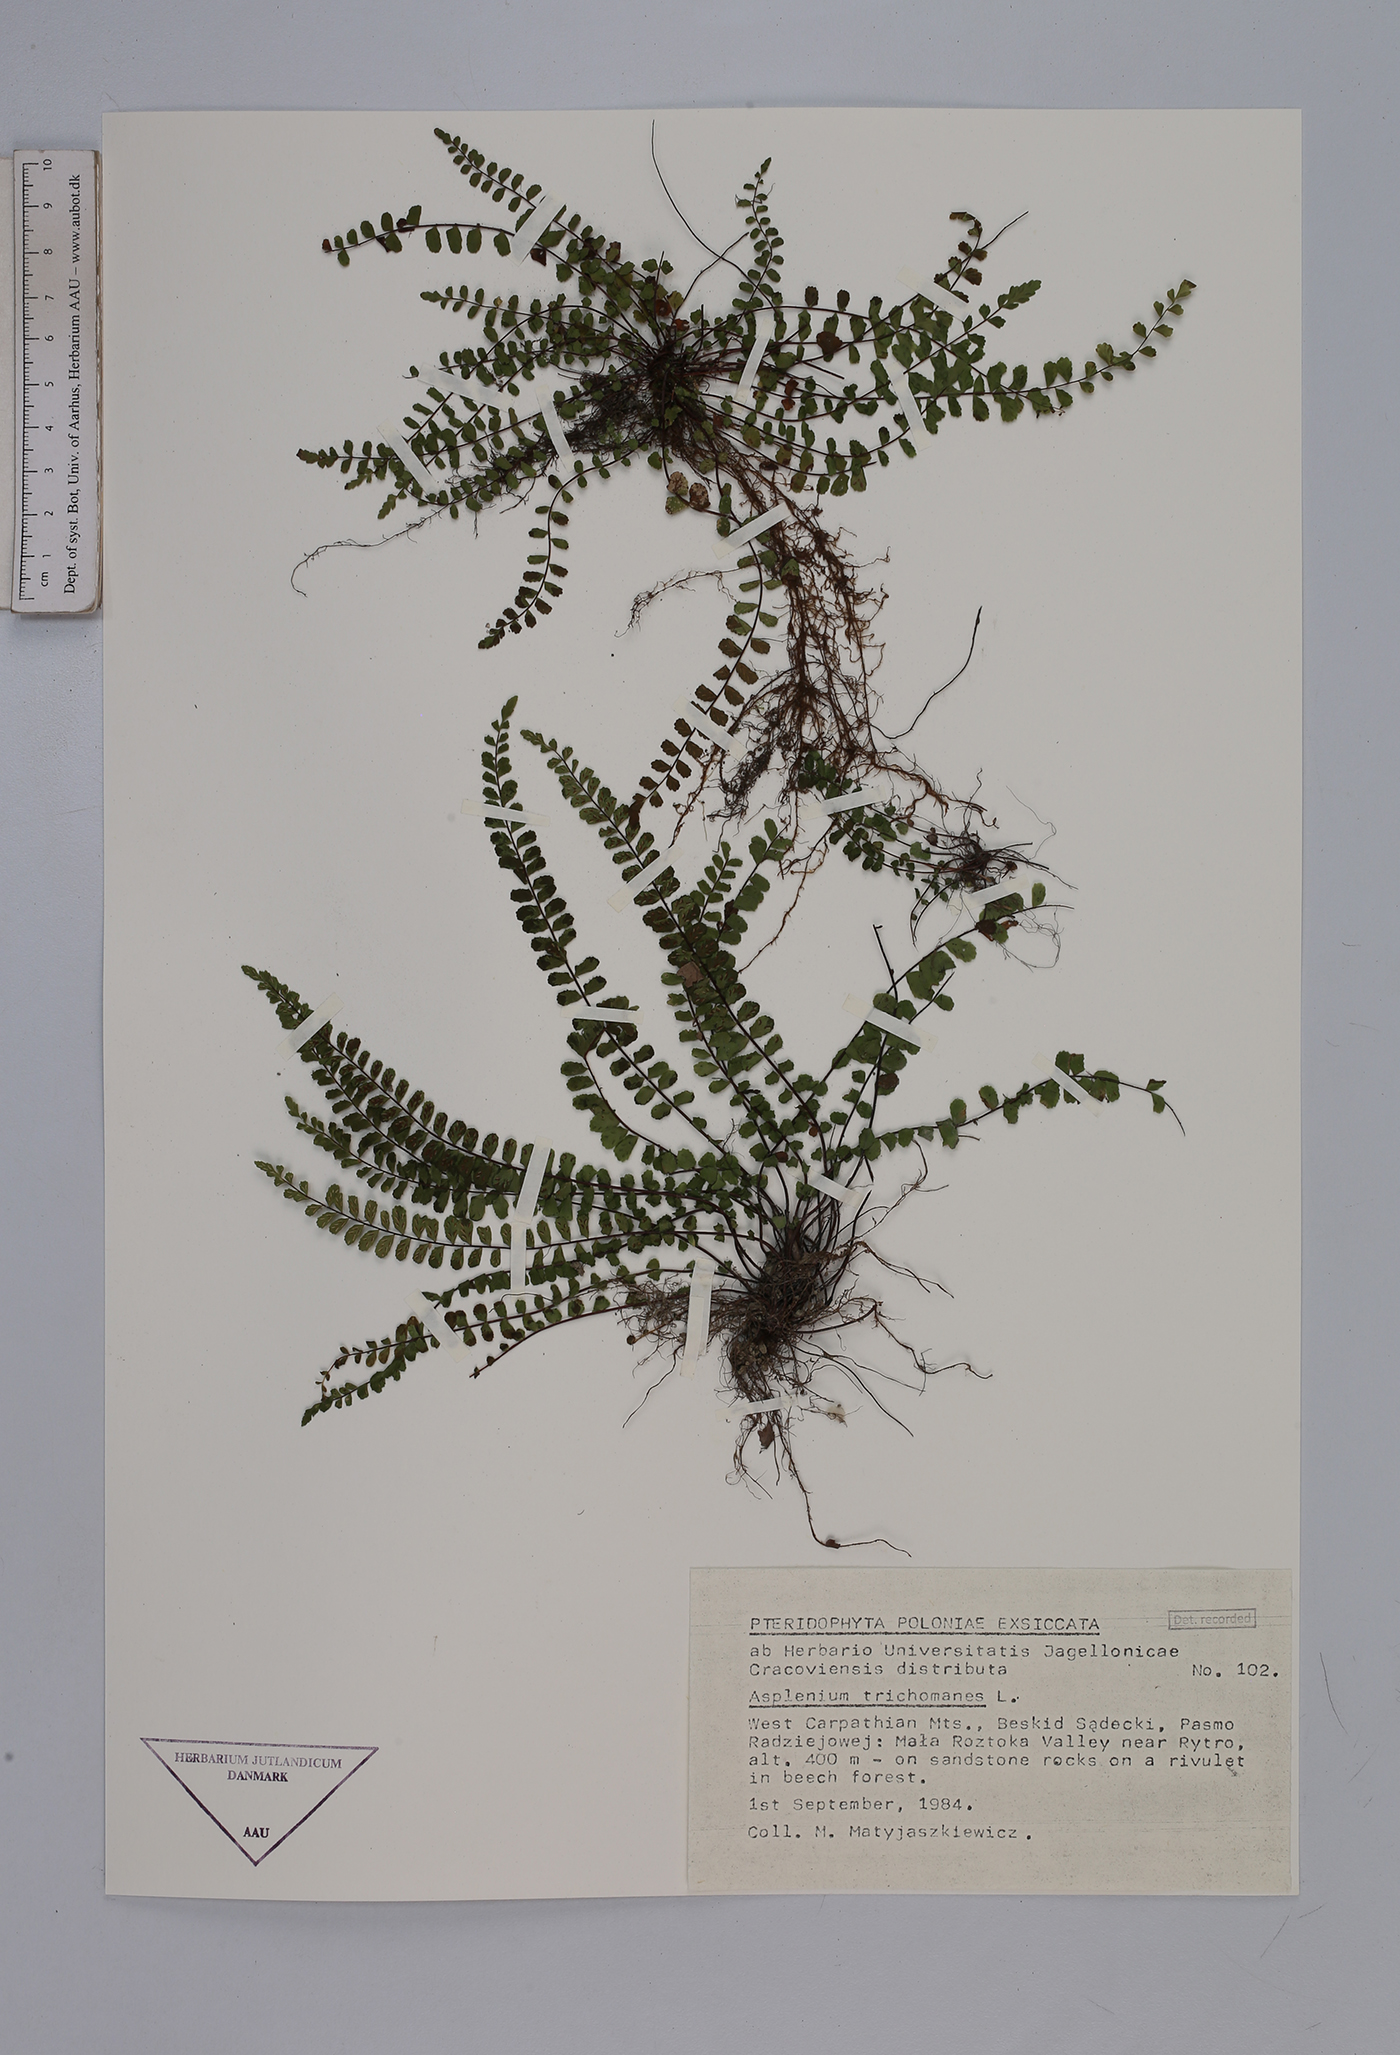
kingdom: Plantae
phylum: Tracheophyta
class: Polypodiopsida
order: Polypodiales
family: Aspleniaceae
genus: Asplenium
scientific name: Asplenium trichomanes
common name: Maidenhair spleenwort
